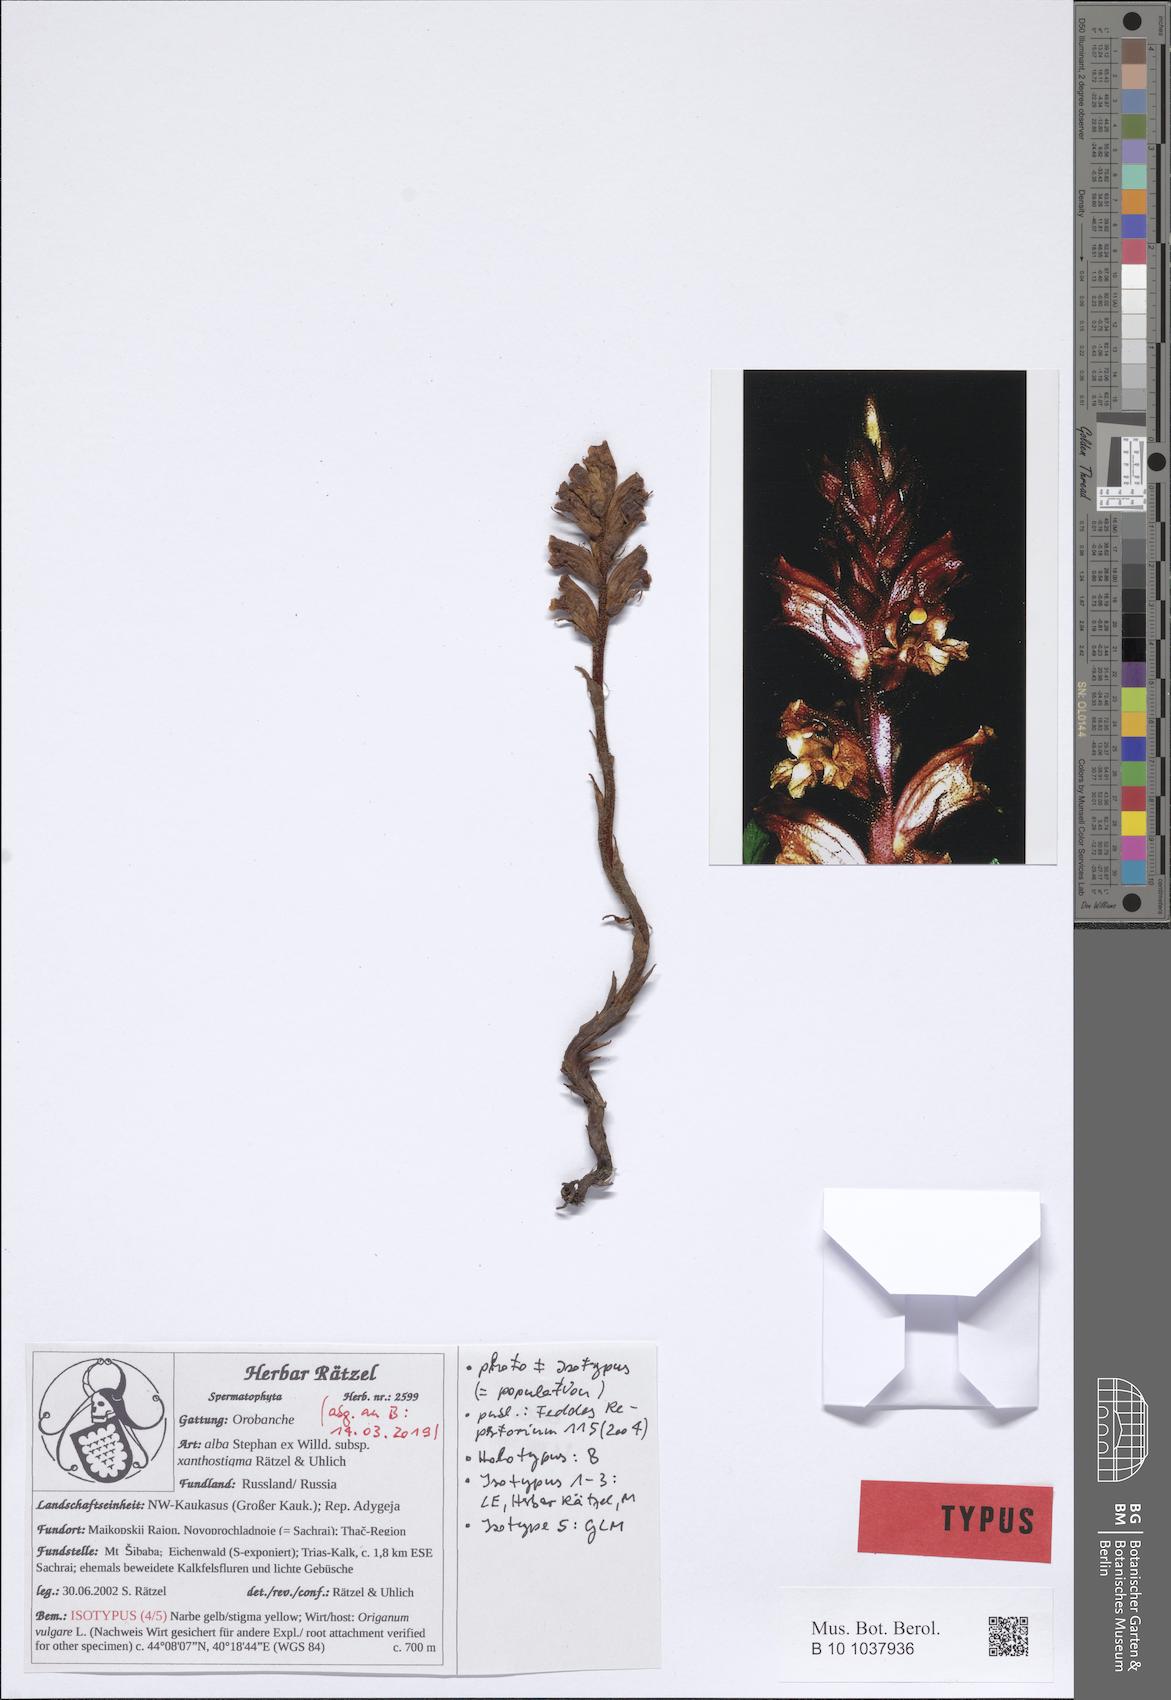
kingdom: Plantae
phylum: Tracheophyta
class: Magnoliopsida
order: Lamiales
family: Orobanchaceae
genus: Orobanche
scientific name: Orobanche alba
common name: Thyme broomrape
